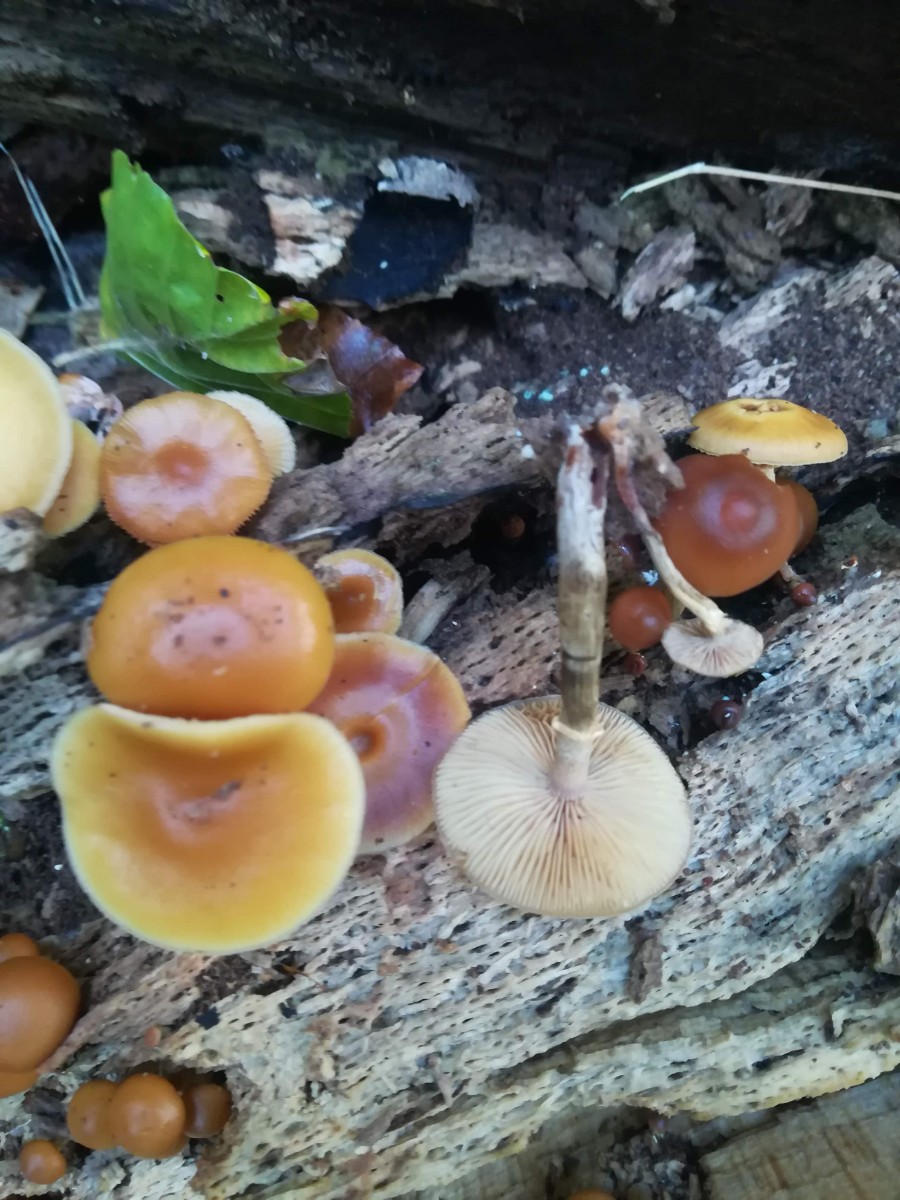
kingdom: Fungi
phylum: Basidiomycota
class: Agaricomycetes
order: Agaricales
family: Hymenogastraceae
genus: Galerina
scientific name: Galerina marginata
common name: randbæltet hjelmhat
